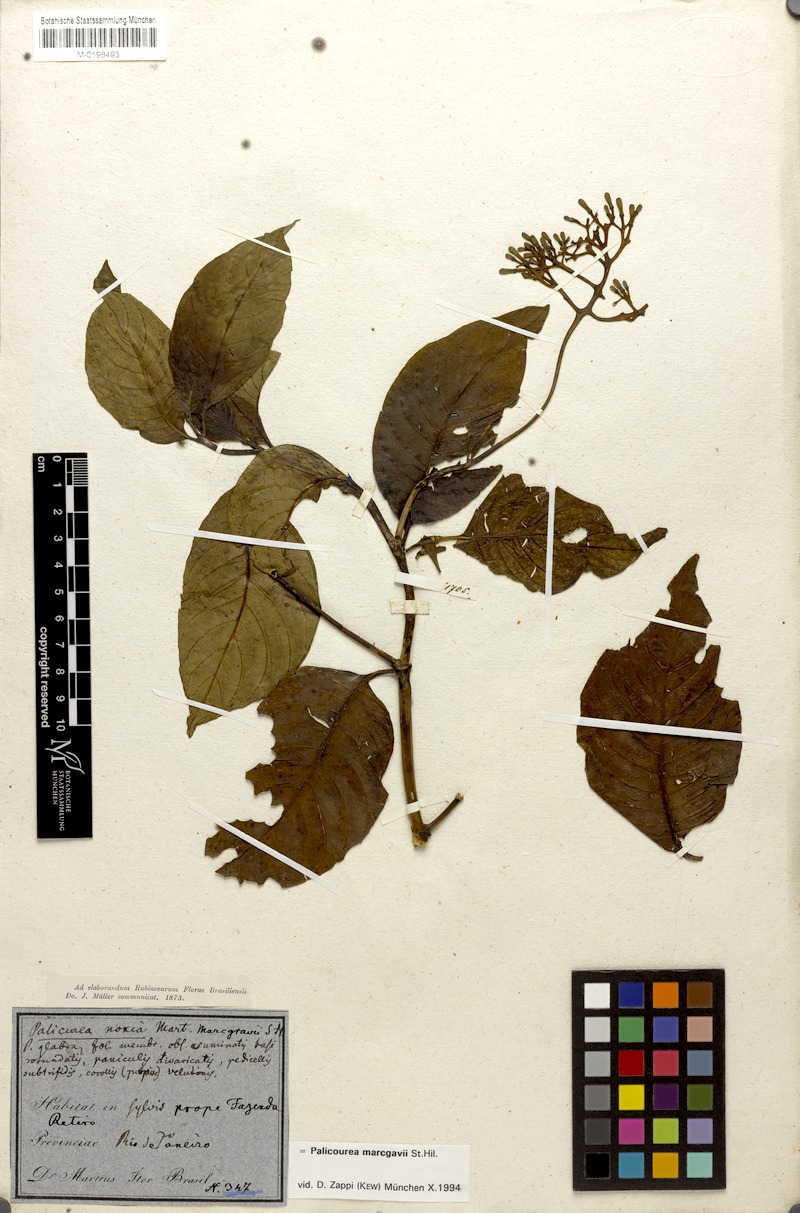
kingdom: Plantae
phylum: Tracheophyta
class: Magnoliopsida
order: Gentianales
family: Rubiaceae
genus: Palicourea
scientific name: Palicourea crocea
